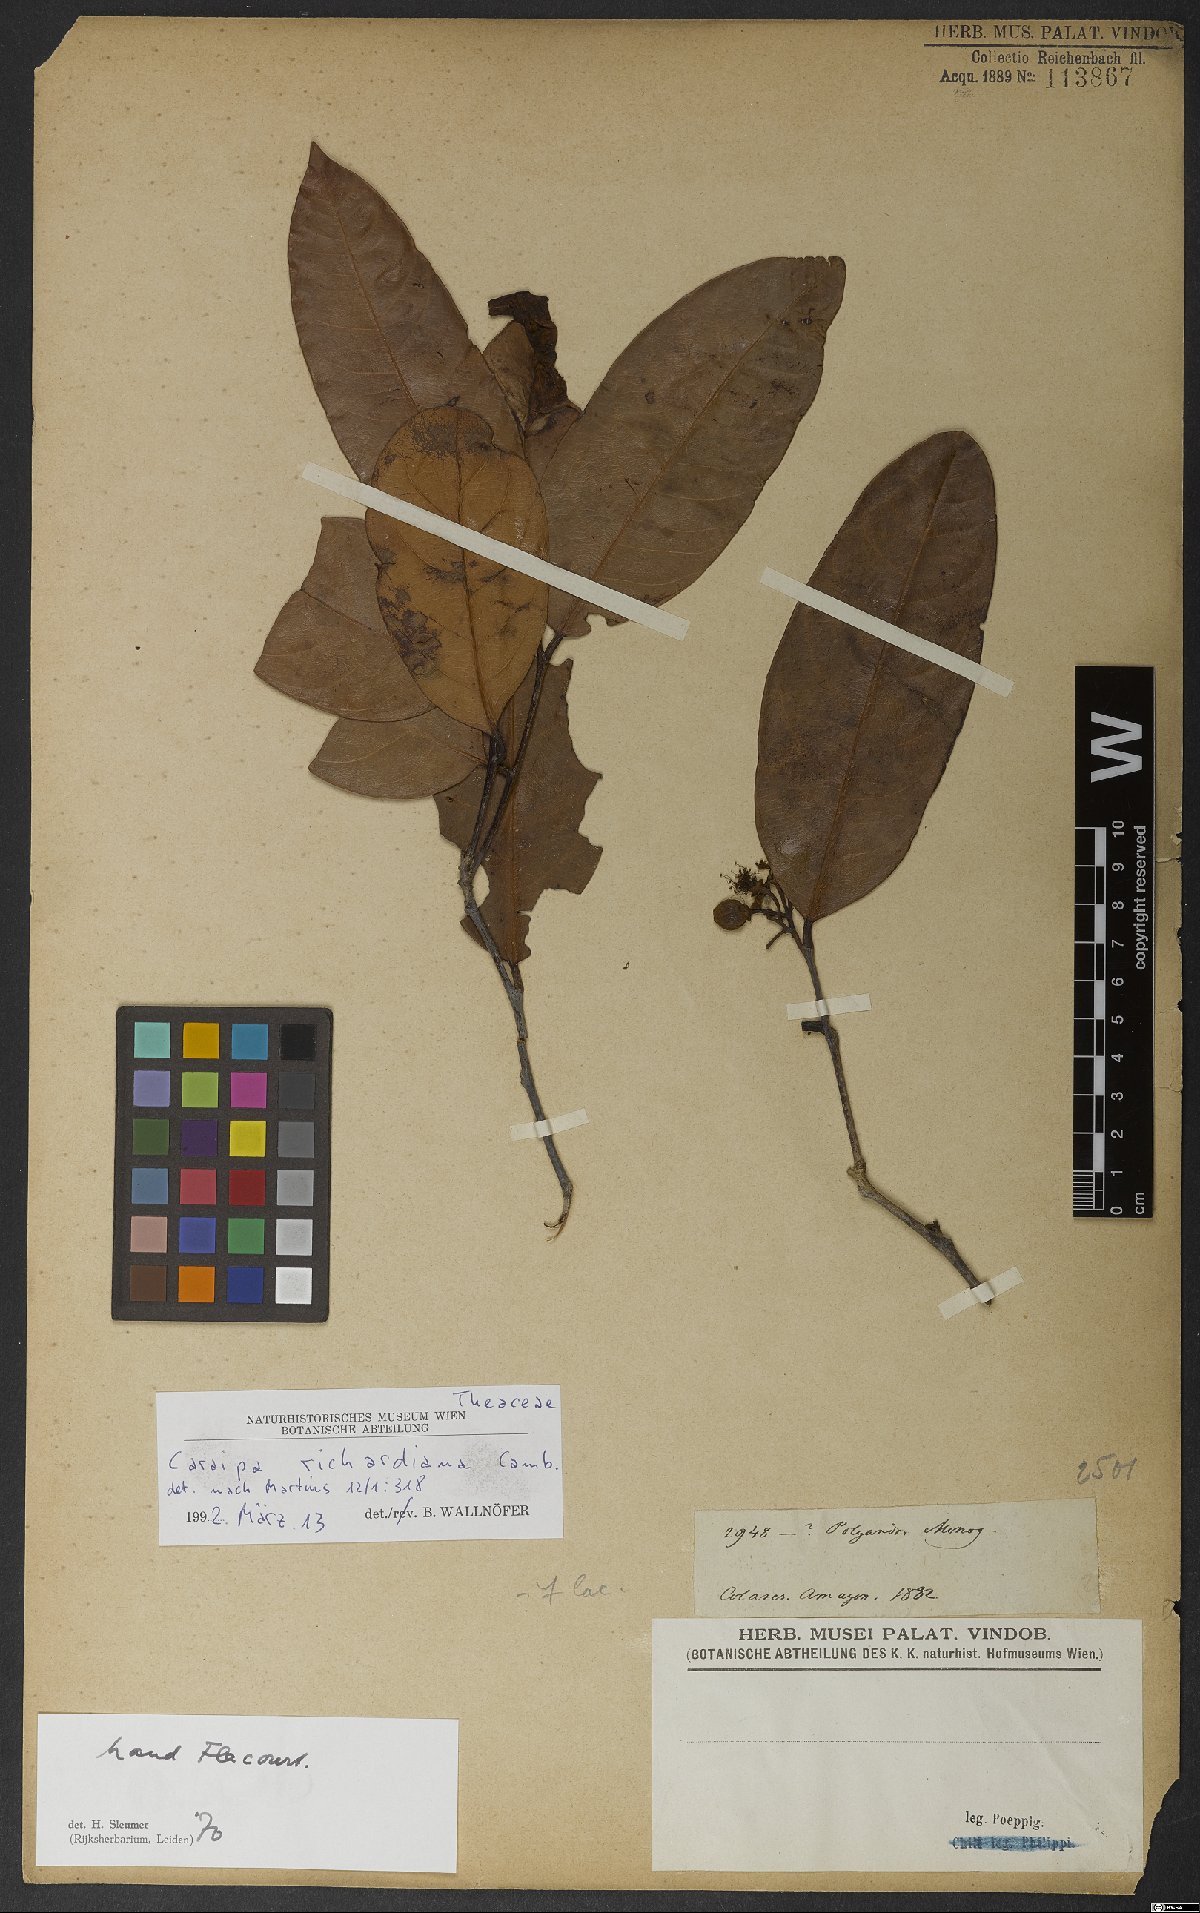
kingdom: Plantae
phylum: Tracheophyta
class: Magnoliopsida
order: Malpighiales
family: Calophyllaceae
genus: Caraipa
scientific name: Caraipa richardiana
